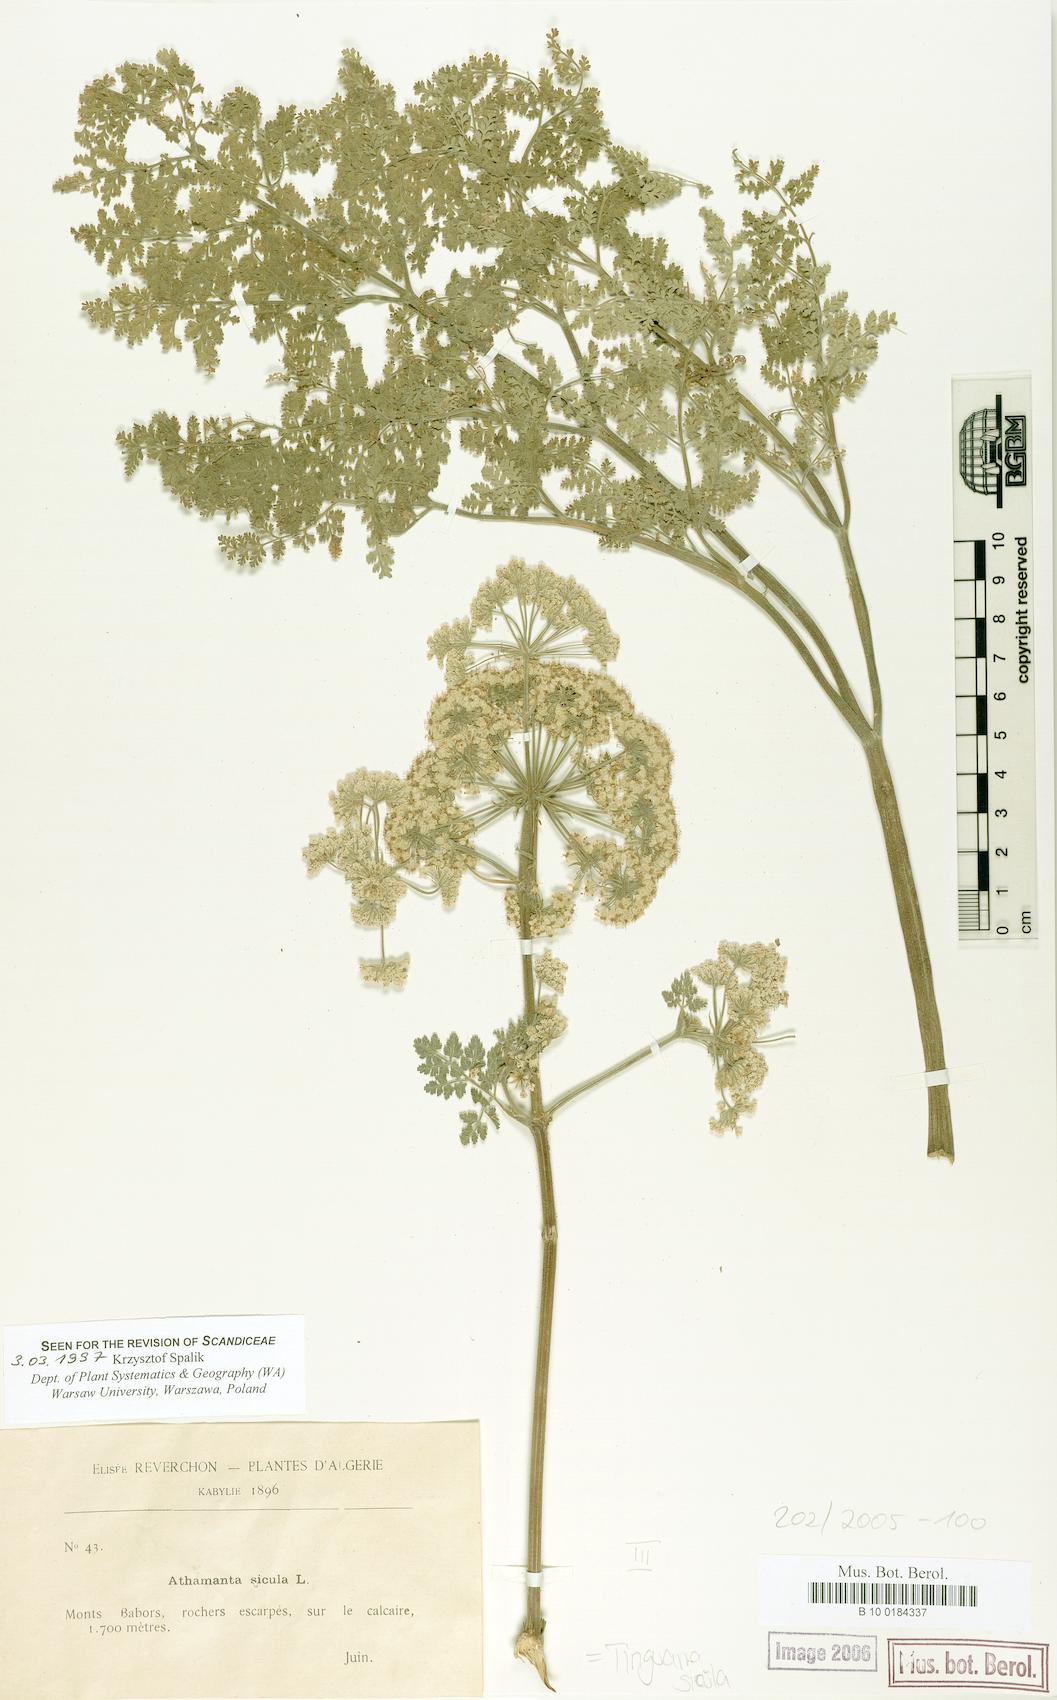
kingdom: Plantae
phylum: Tracheophyta
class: Magnoliopsida
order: Apiales
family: Apiaceae
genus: Athamanta
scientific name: Athamanta sicula
